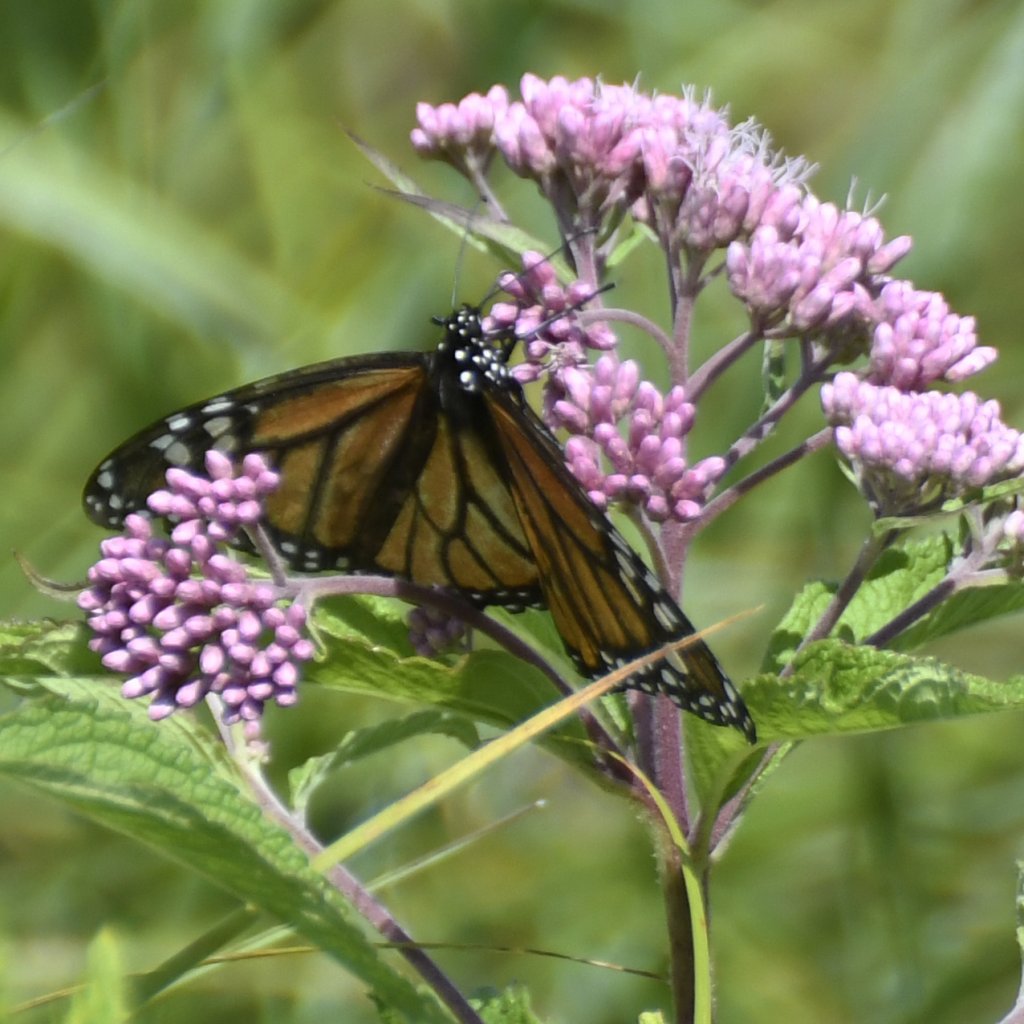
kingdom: Animalia
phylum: Arthropoda
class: Insecta
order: Lepidoptera
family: Nymphalidae
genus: Danaus
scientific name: Danaus plexippus
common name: Monarch
